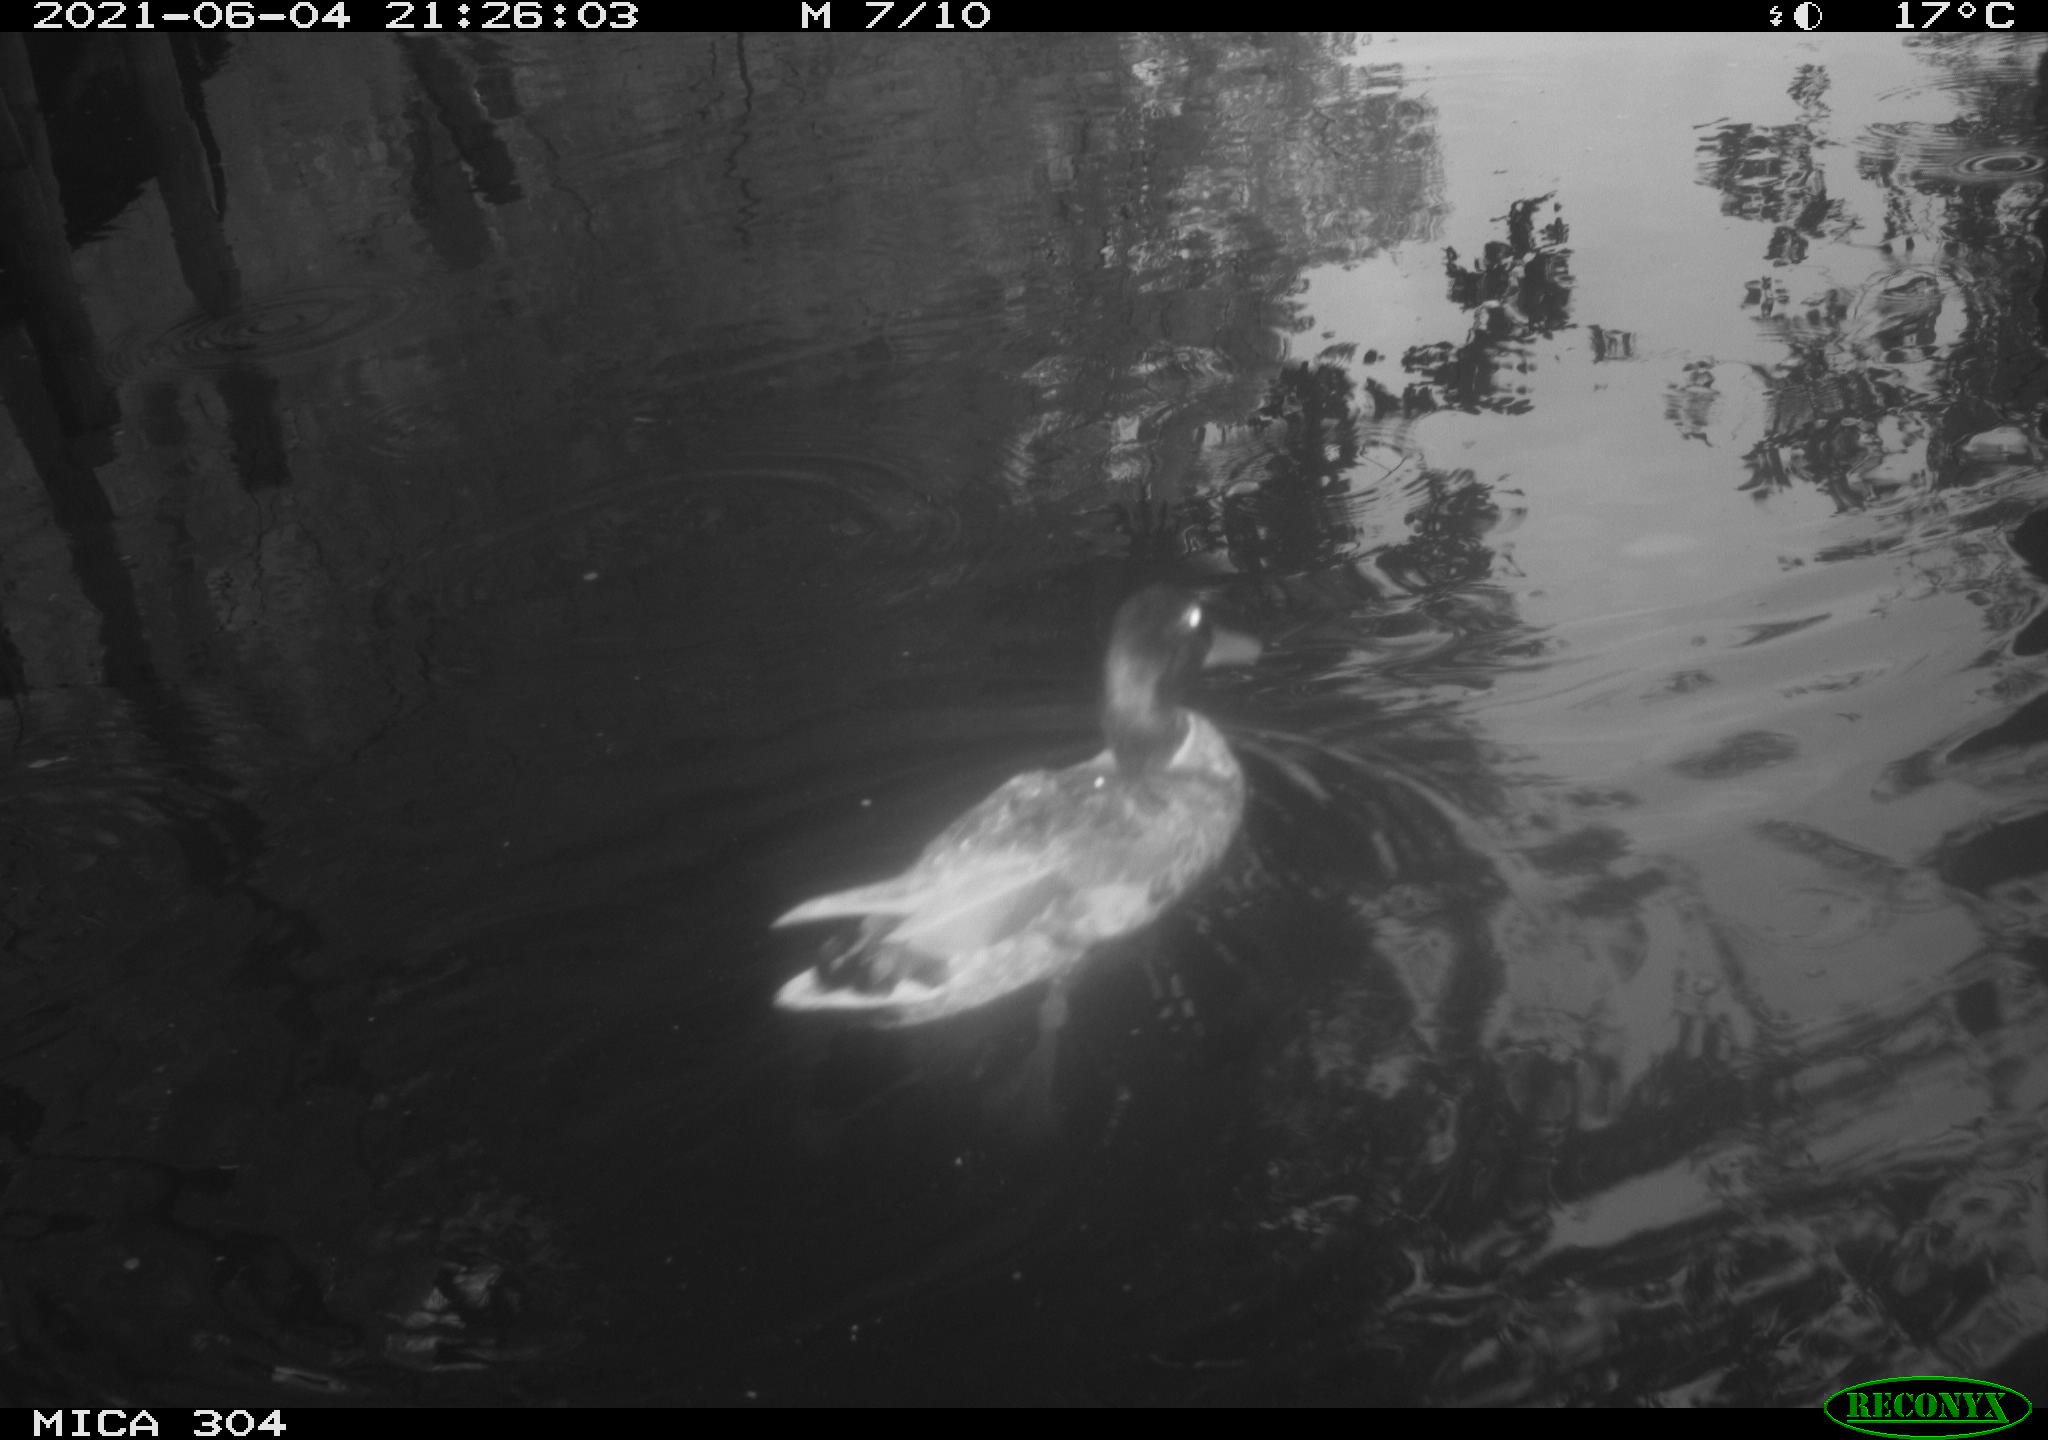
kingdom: Animalia
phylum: Chordata
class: Aves
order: Anseriformes
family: Anatidae
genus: Mareca
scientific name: Mareca strepera
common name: Gadwall
